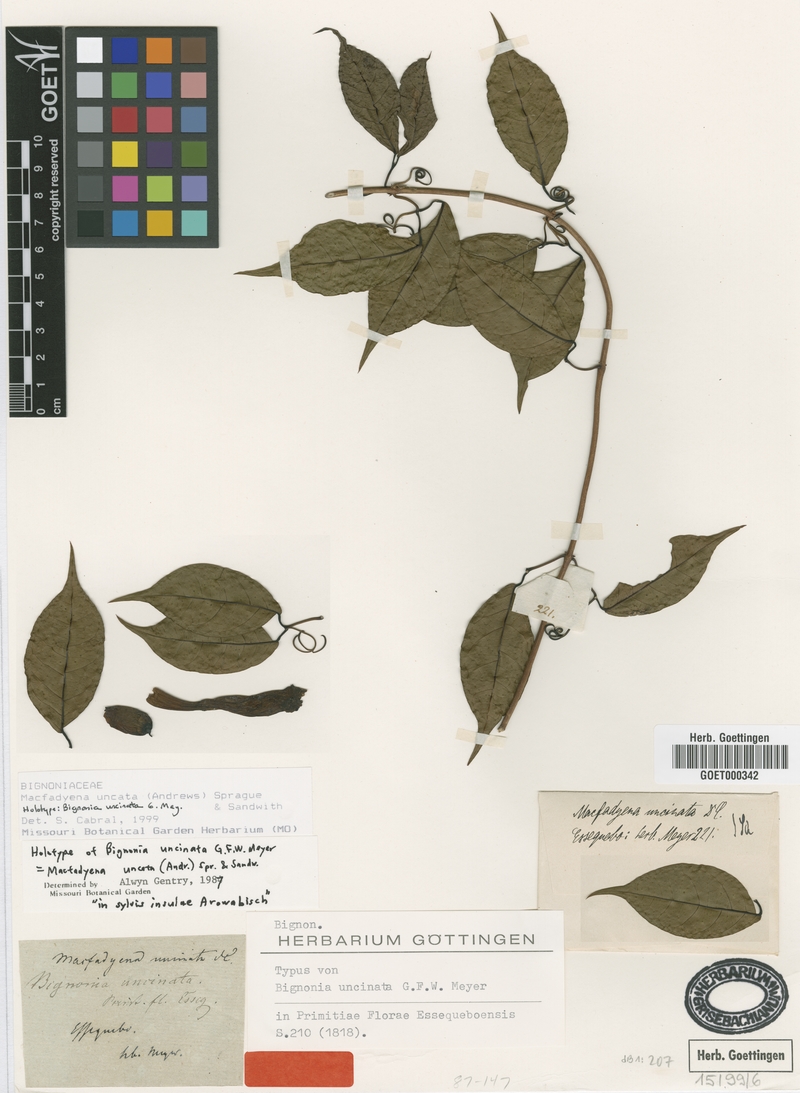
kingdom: Plantae
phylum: Tracheophyta
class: Magnoliopsida
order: Lamiales
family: Bignoniaceae
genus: Dolichandra
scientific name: Dolichandra uncata
